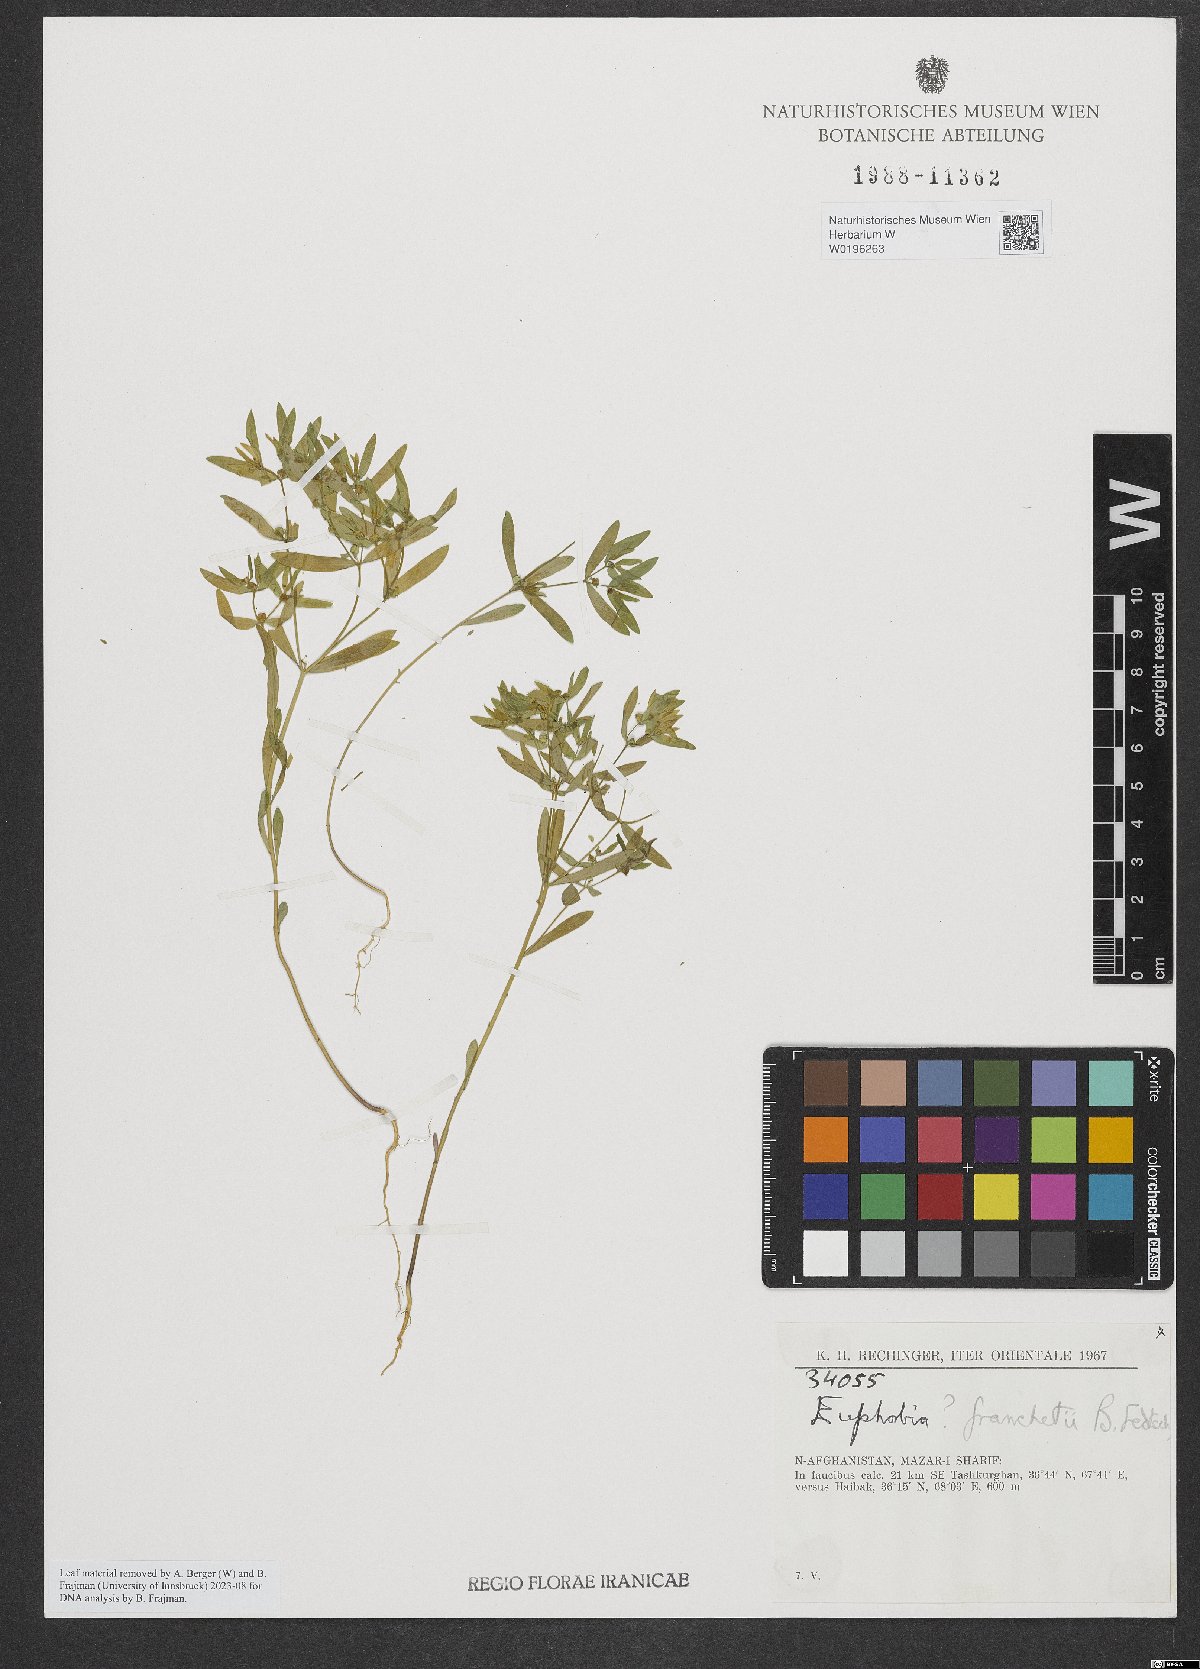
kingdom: Plantae
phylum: Tracheophyta
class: Magnoliopsida
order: Malpighiales
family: Euphorbiaceae
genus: Euphorbia
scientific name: Euphorbia franchetii
